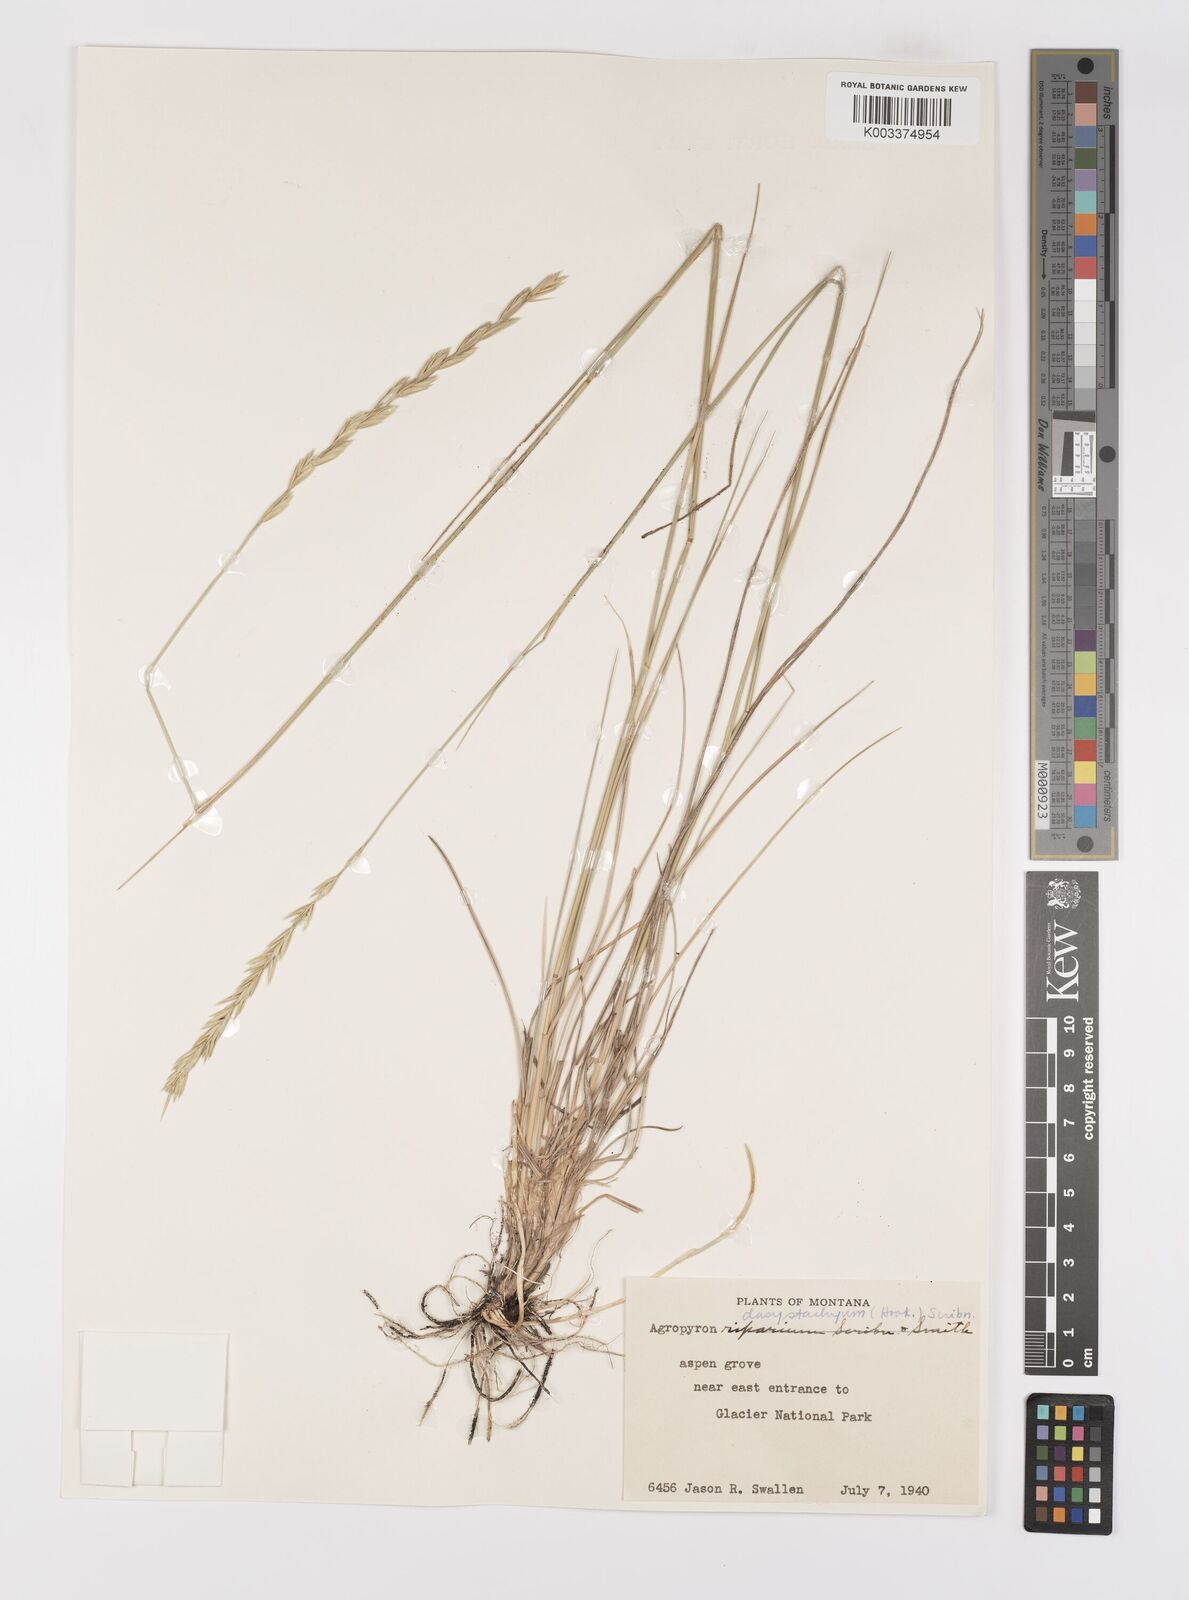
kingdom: Plantae
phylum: Tracheophyta
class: Liliopsida
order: Poales
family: Poaceae
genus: Elymus
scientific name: Elymus lanceolatus
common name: Thick-spike wheatgrass
